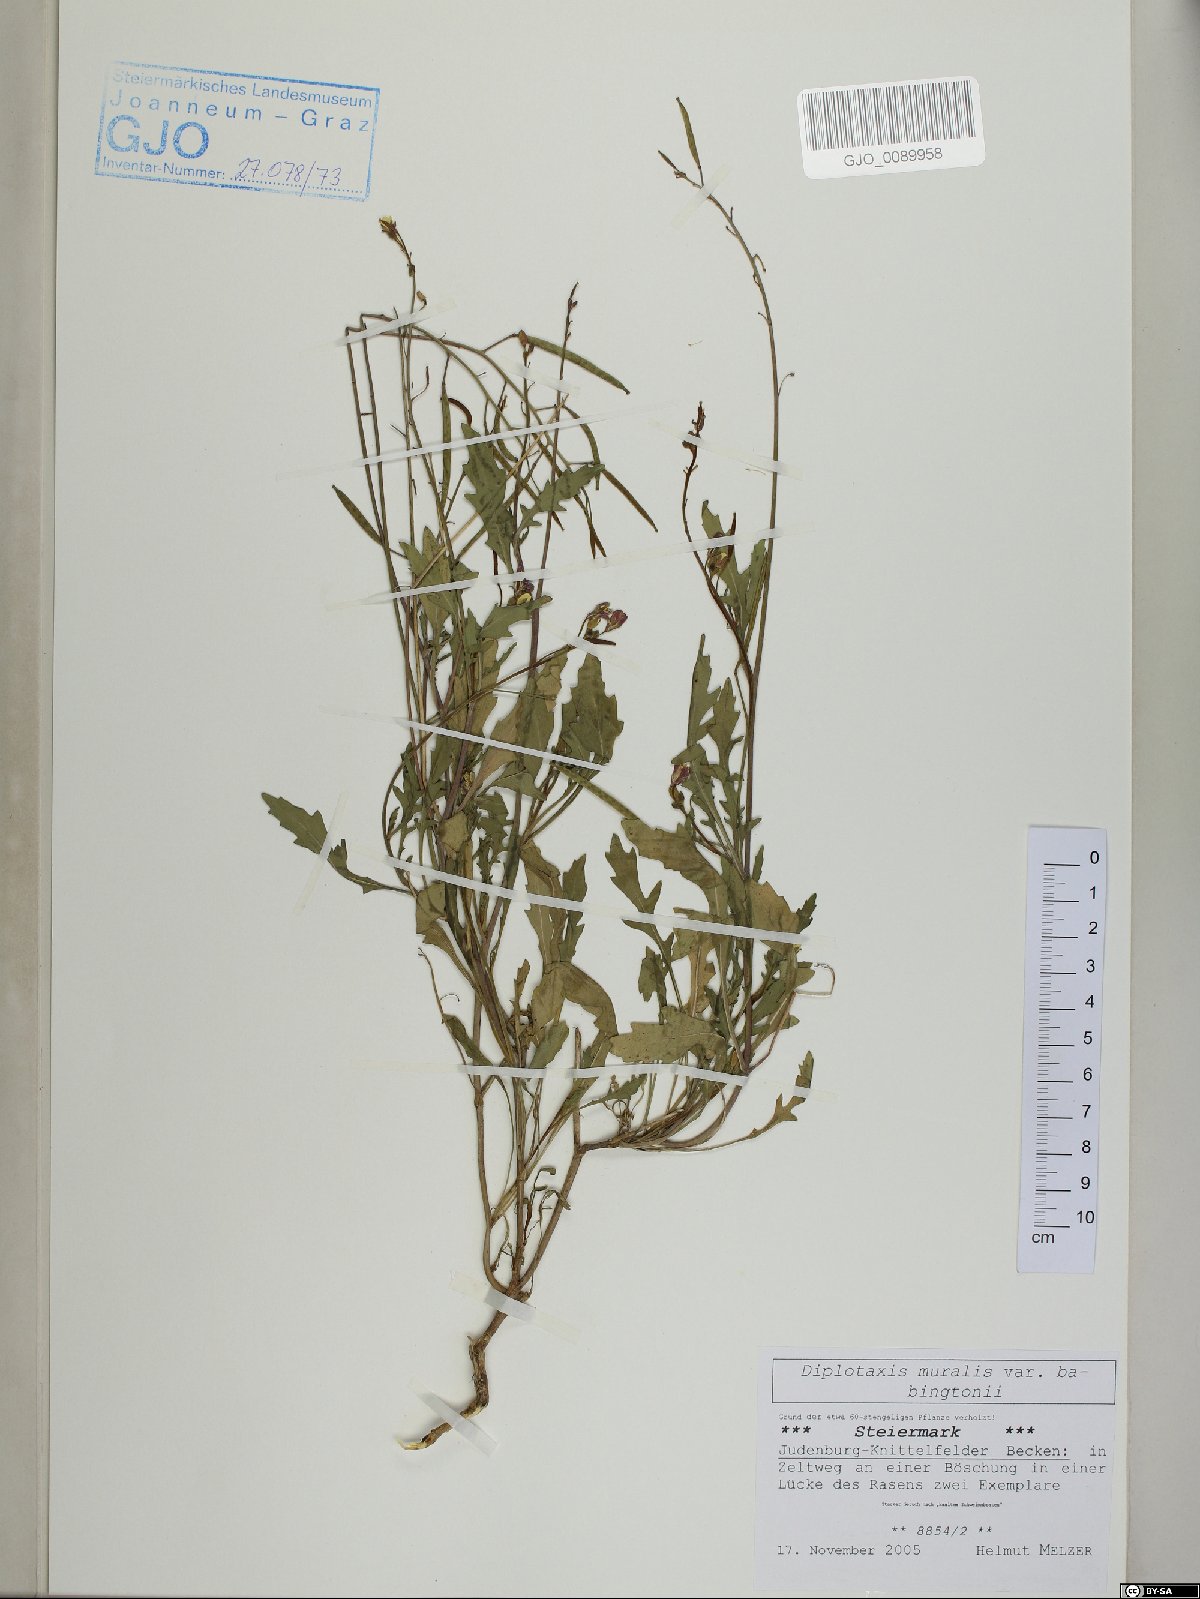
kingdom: Plantae
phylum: Tracheophyta
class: Magnoliopsida
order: Brassicales
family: Brassicaceae
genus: Diplotaxis
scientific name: Diplotaxis muralis
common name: Annual wall-rocket
